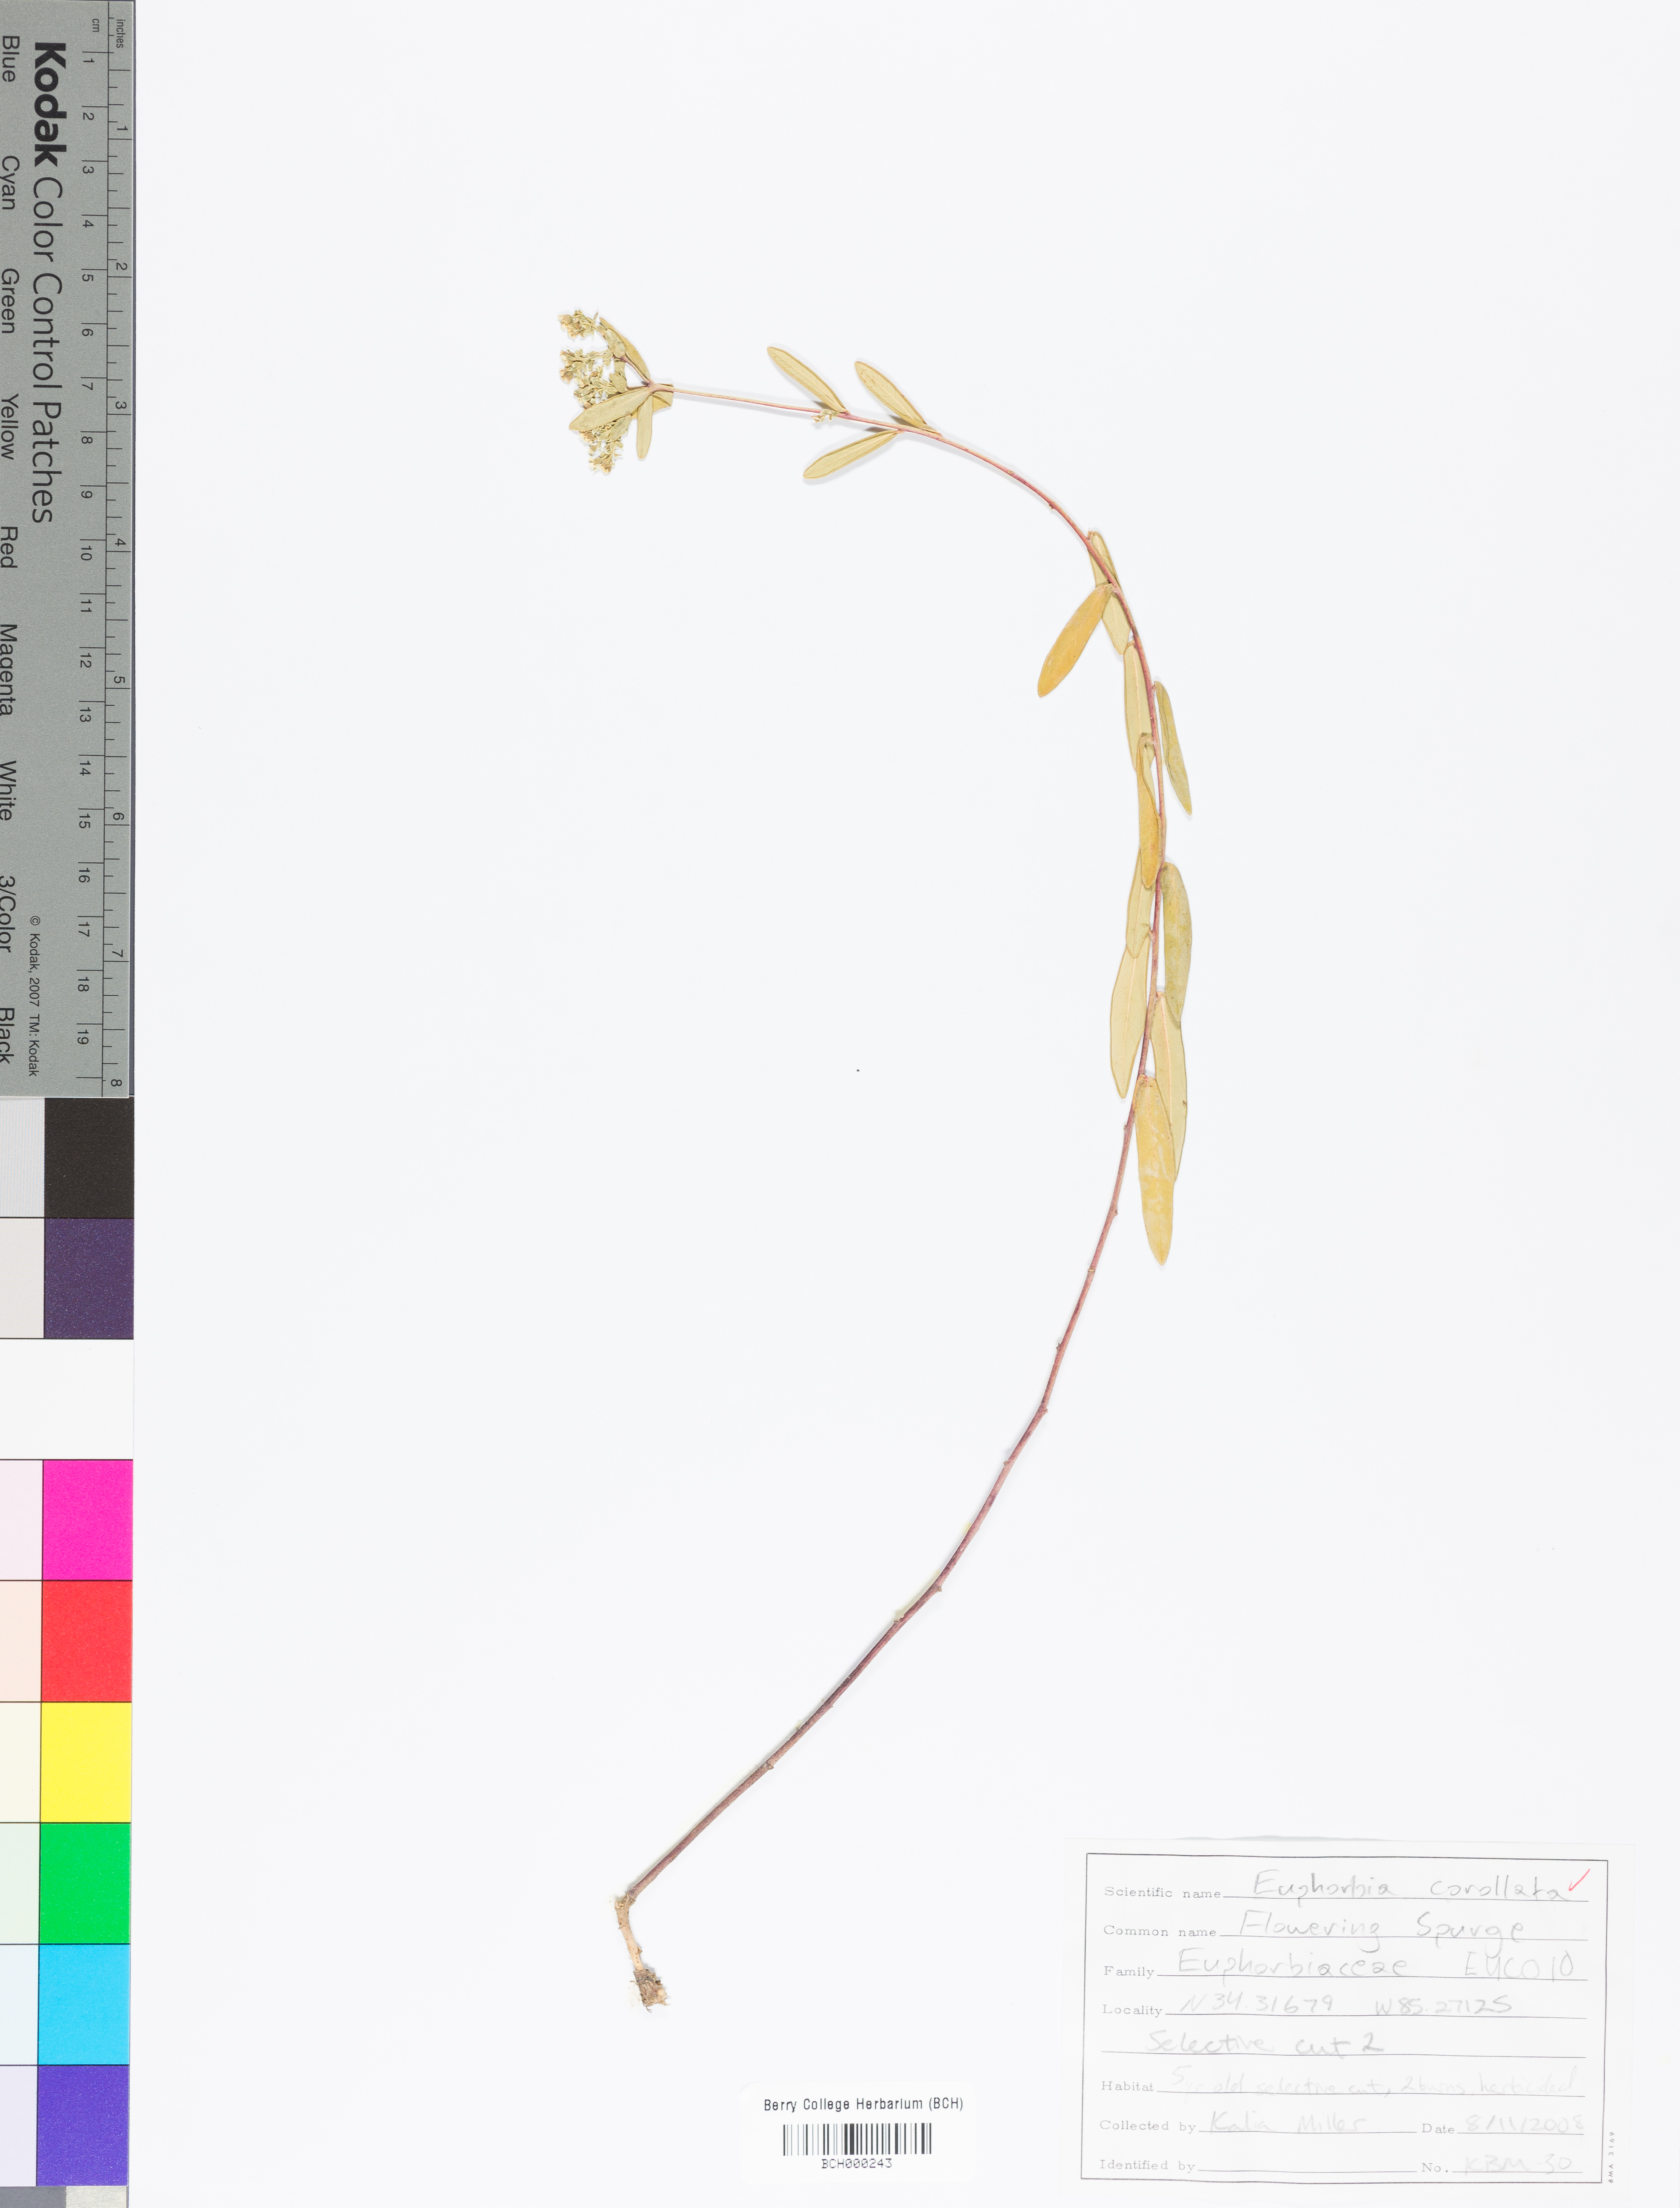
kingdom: Plantae
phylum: Tracheophyta
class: Magnoliopsida
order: Asterales
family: Asteraceae
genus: Erigeron
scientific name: Erigeron annuus
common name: Tall fleabane
